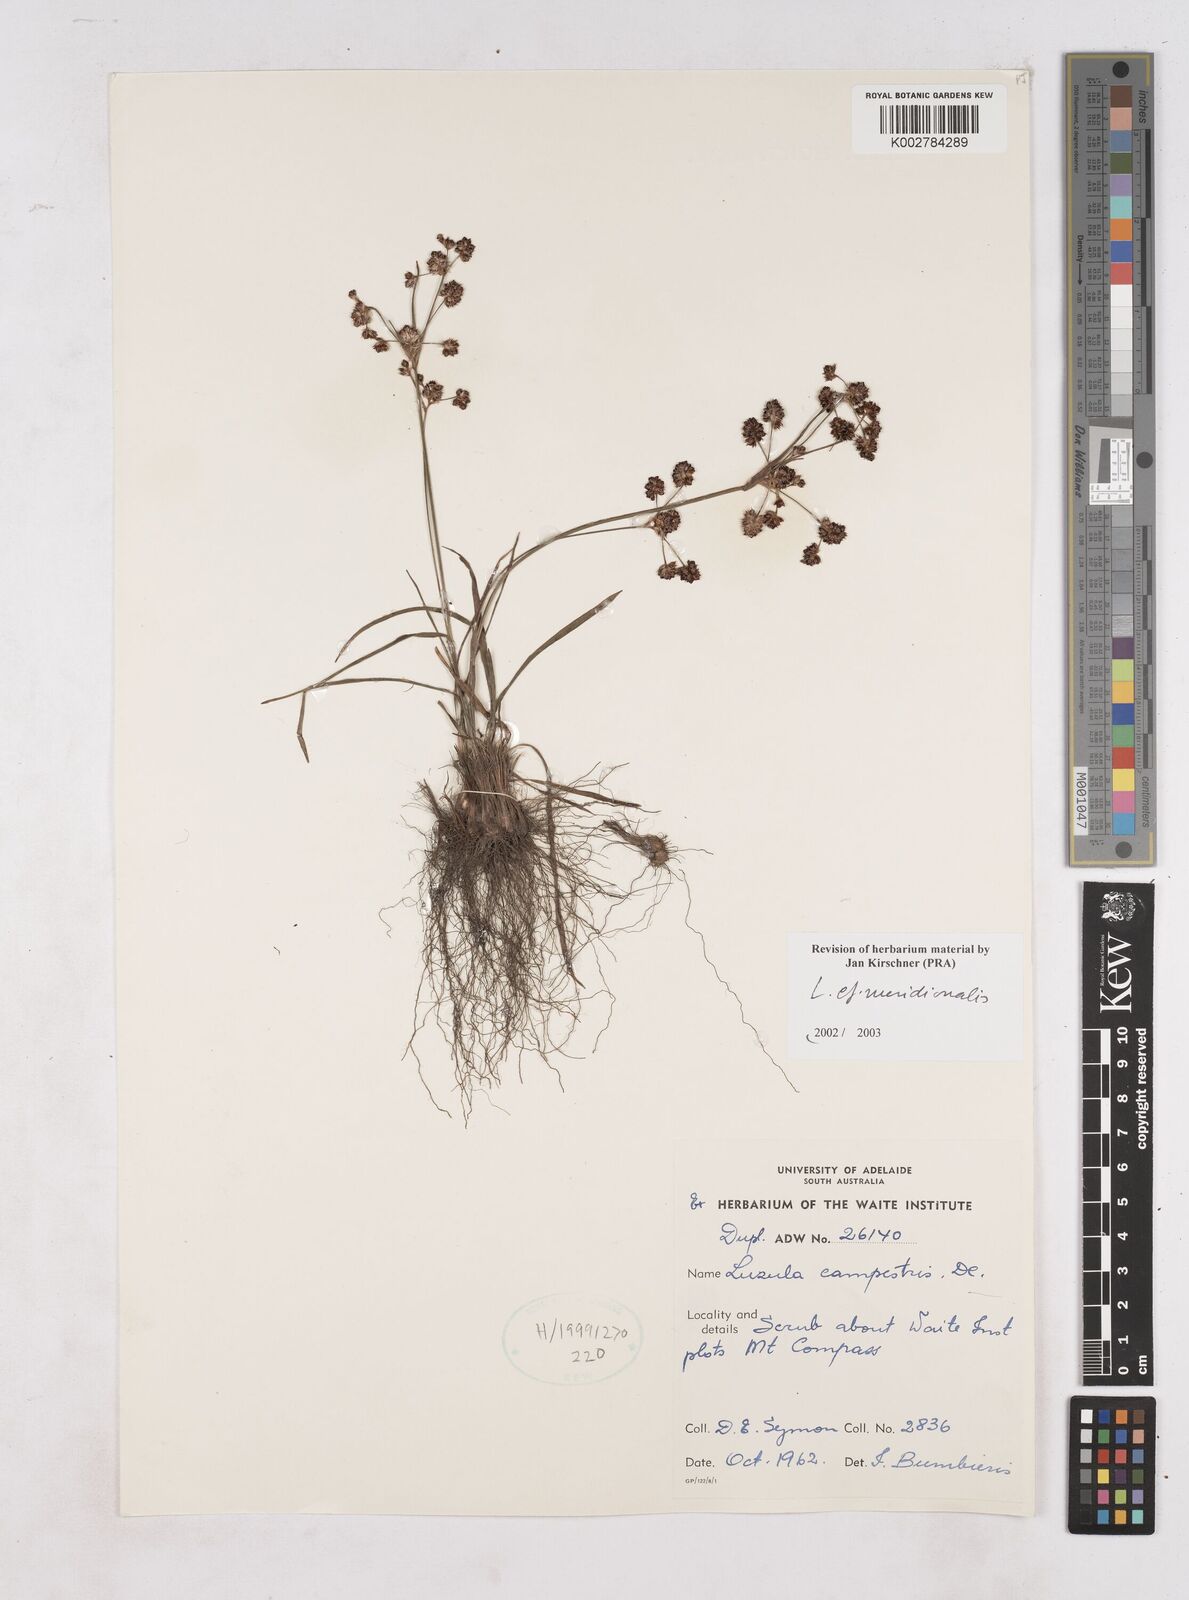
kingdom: Plantae
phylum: Tracheophyta
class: Liliopsida
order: Poales
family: Juncaceae
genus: Luzula
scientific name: Luzula meridionalis
